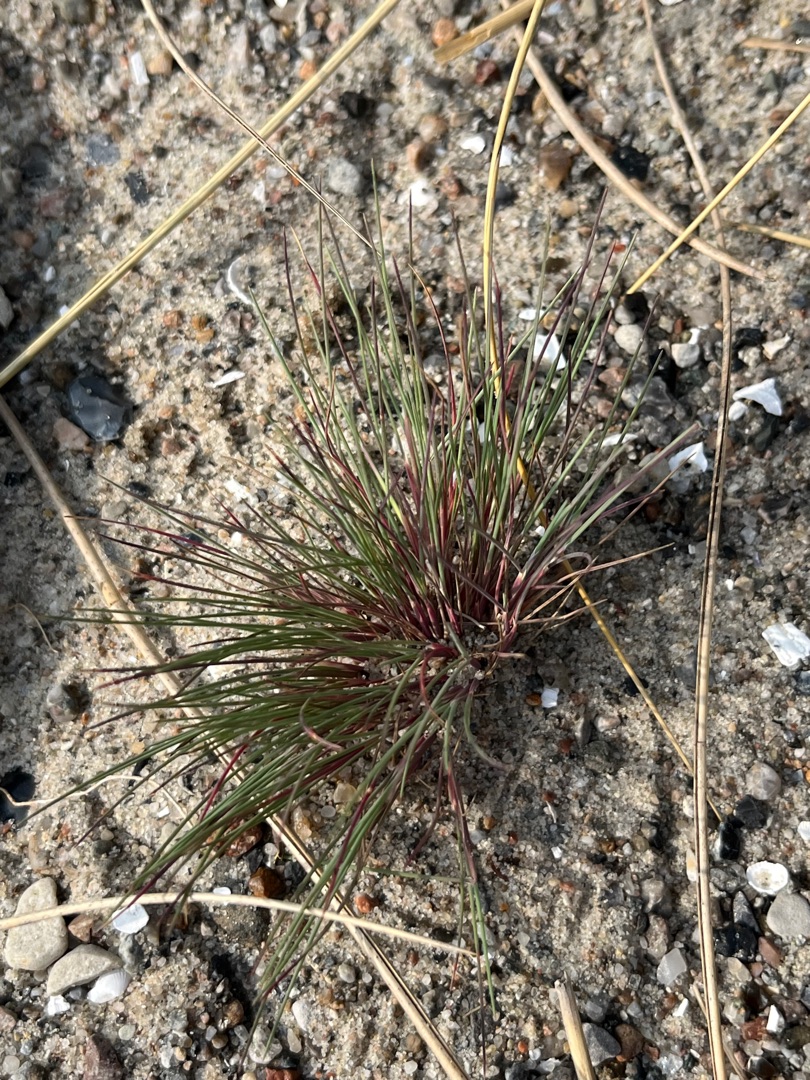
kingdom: Plantae
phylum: Tracheophyta
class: Liliopsida
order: Poales
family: Poaceae
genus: Corynephorus
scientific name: Corynephorus canescens
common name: Sandskæg
